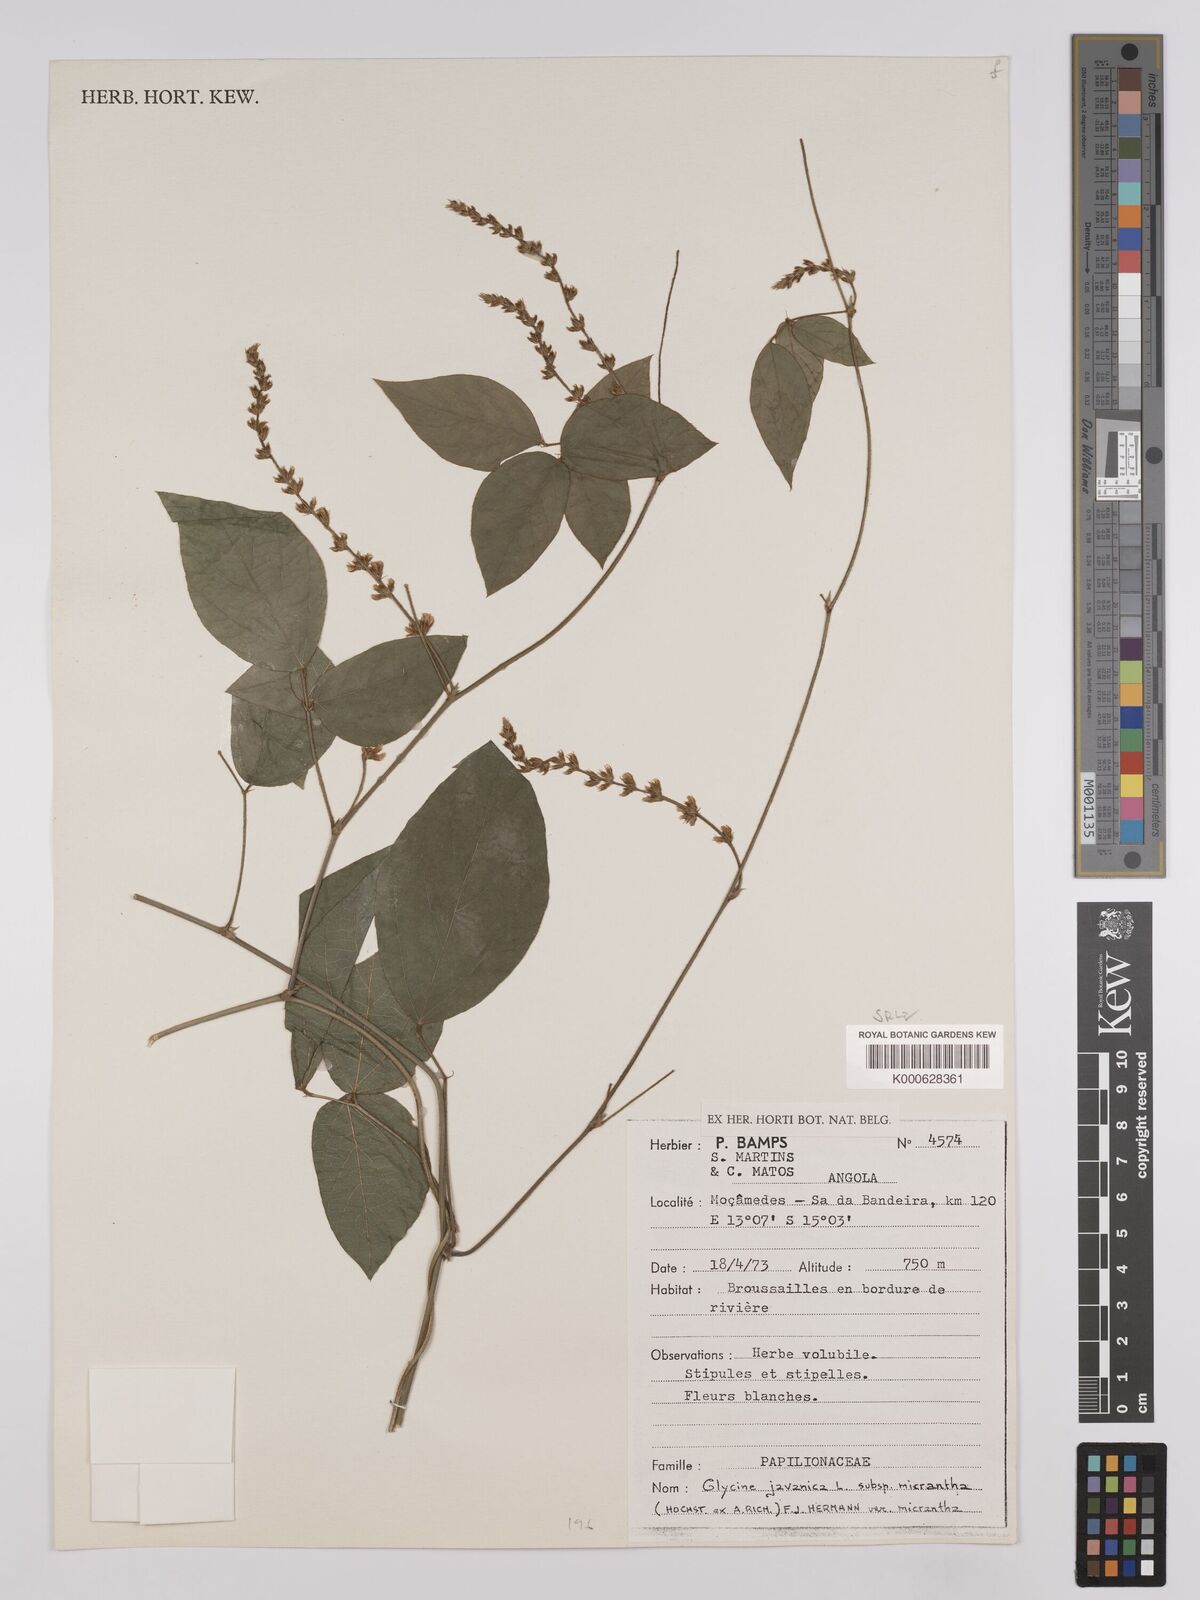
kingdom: Plantae
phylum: Tracheophyta
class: Magnoliopsida
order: Fabales
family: Fabaceae
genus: Neonotonia
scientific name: Neonotonia wightii
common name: Perennial soybean
